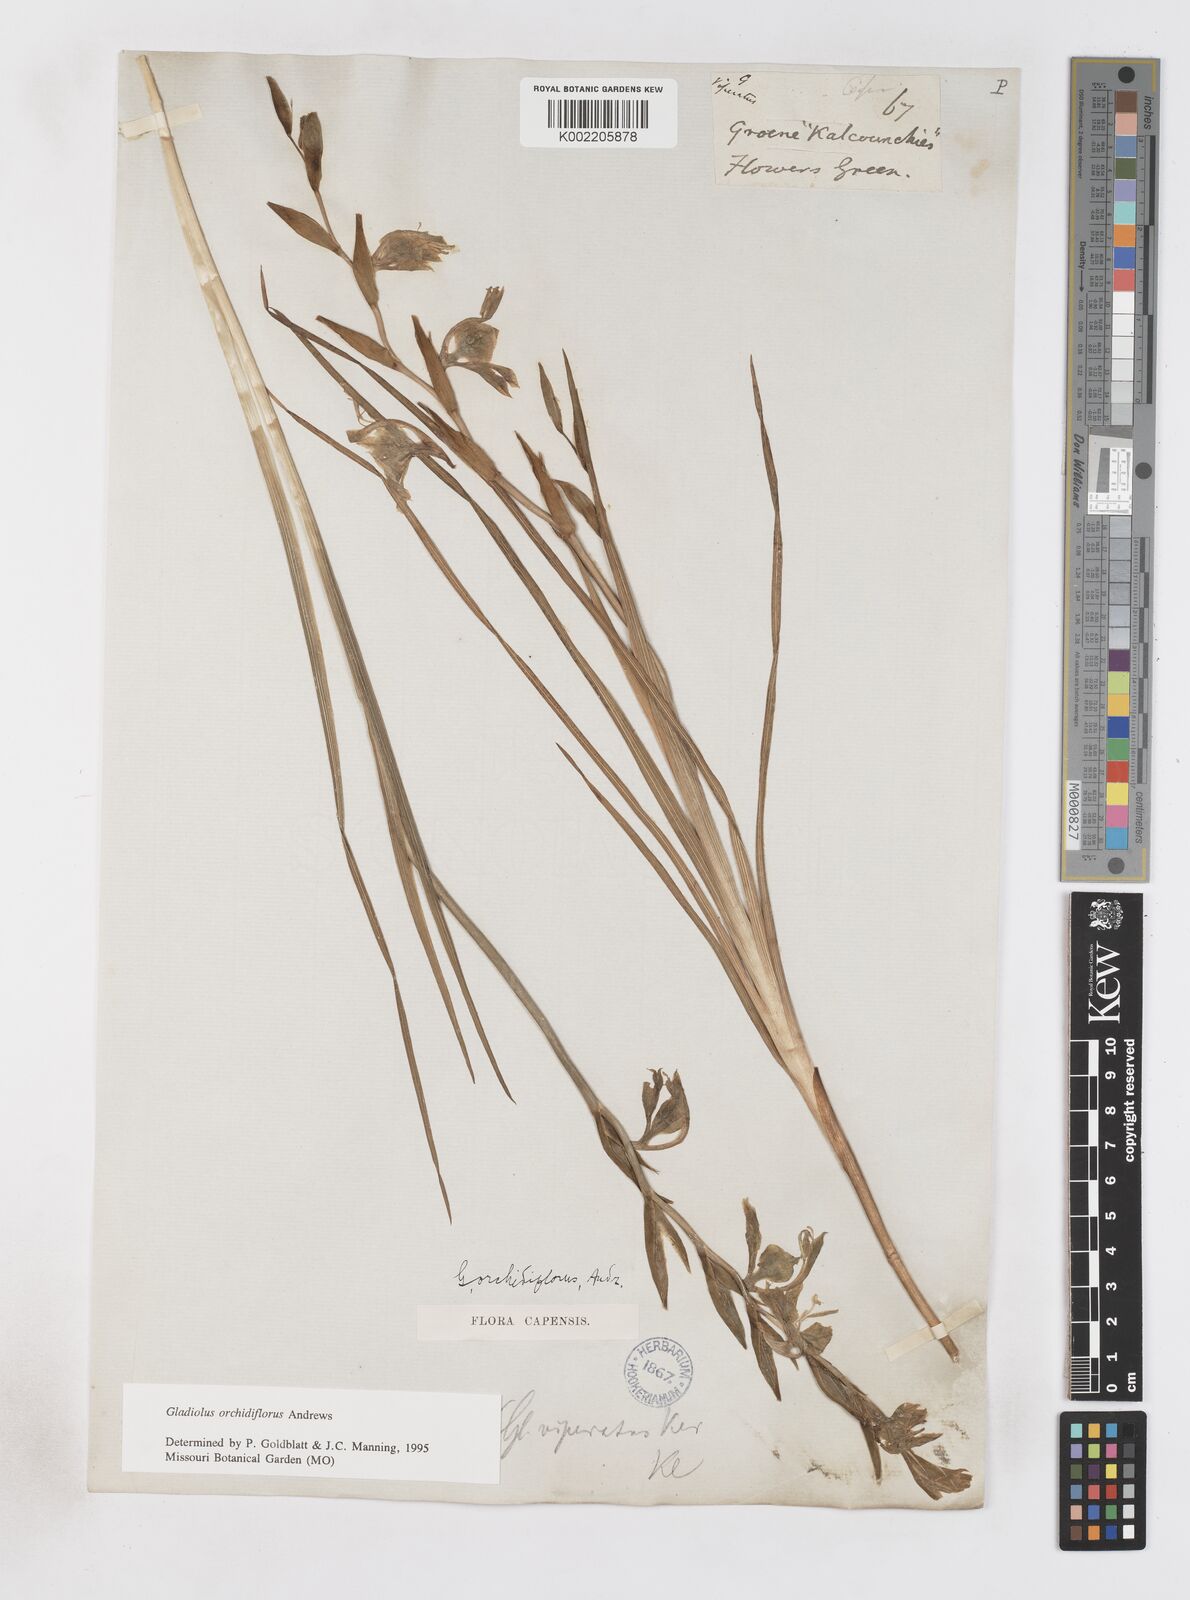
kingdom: Plantae
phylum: Tracheophyta
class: Liliopsida
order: Asparagales
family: Iridaceae
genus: Gladiolus
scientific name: Gladiolus orchidiflorus
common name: Gray kalkoentjie
